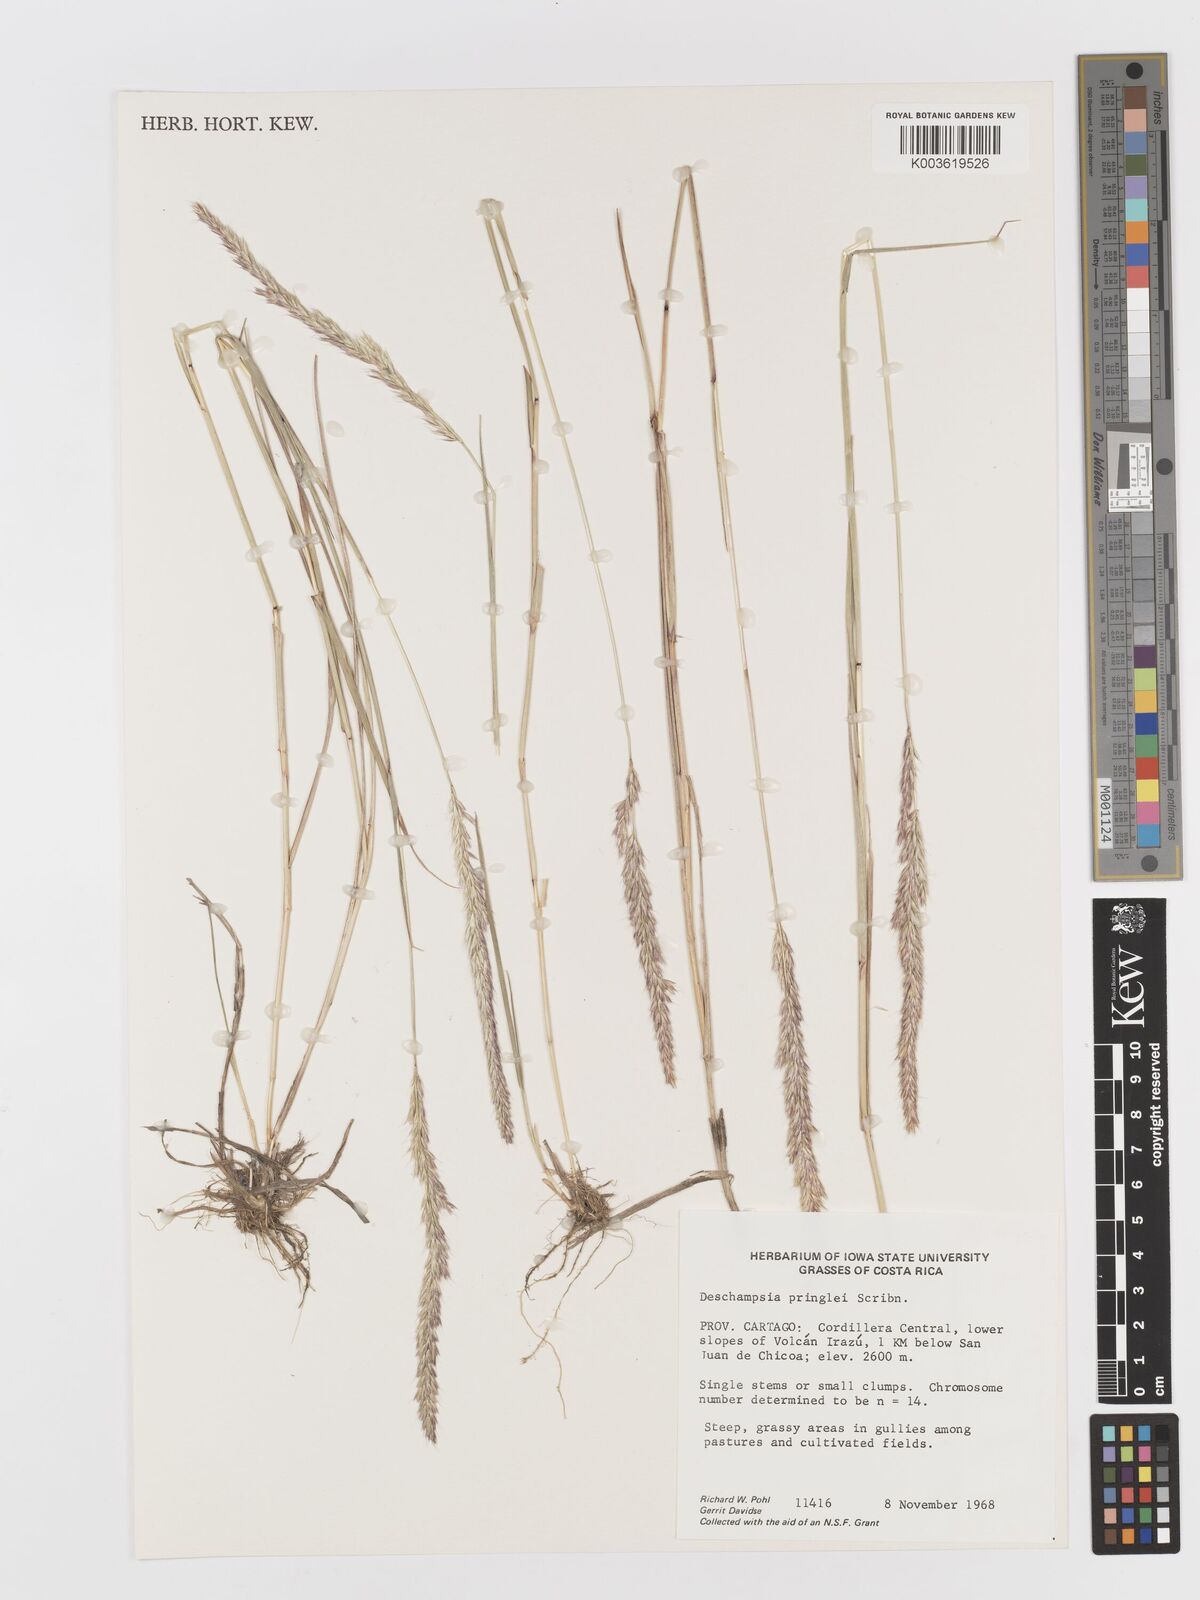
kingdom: Plantae
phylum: Tracheophyta
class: Liliopsida
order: Poales
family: Poaceae
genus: Peyritschia
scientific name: Peyritschia pringlei
